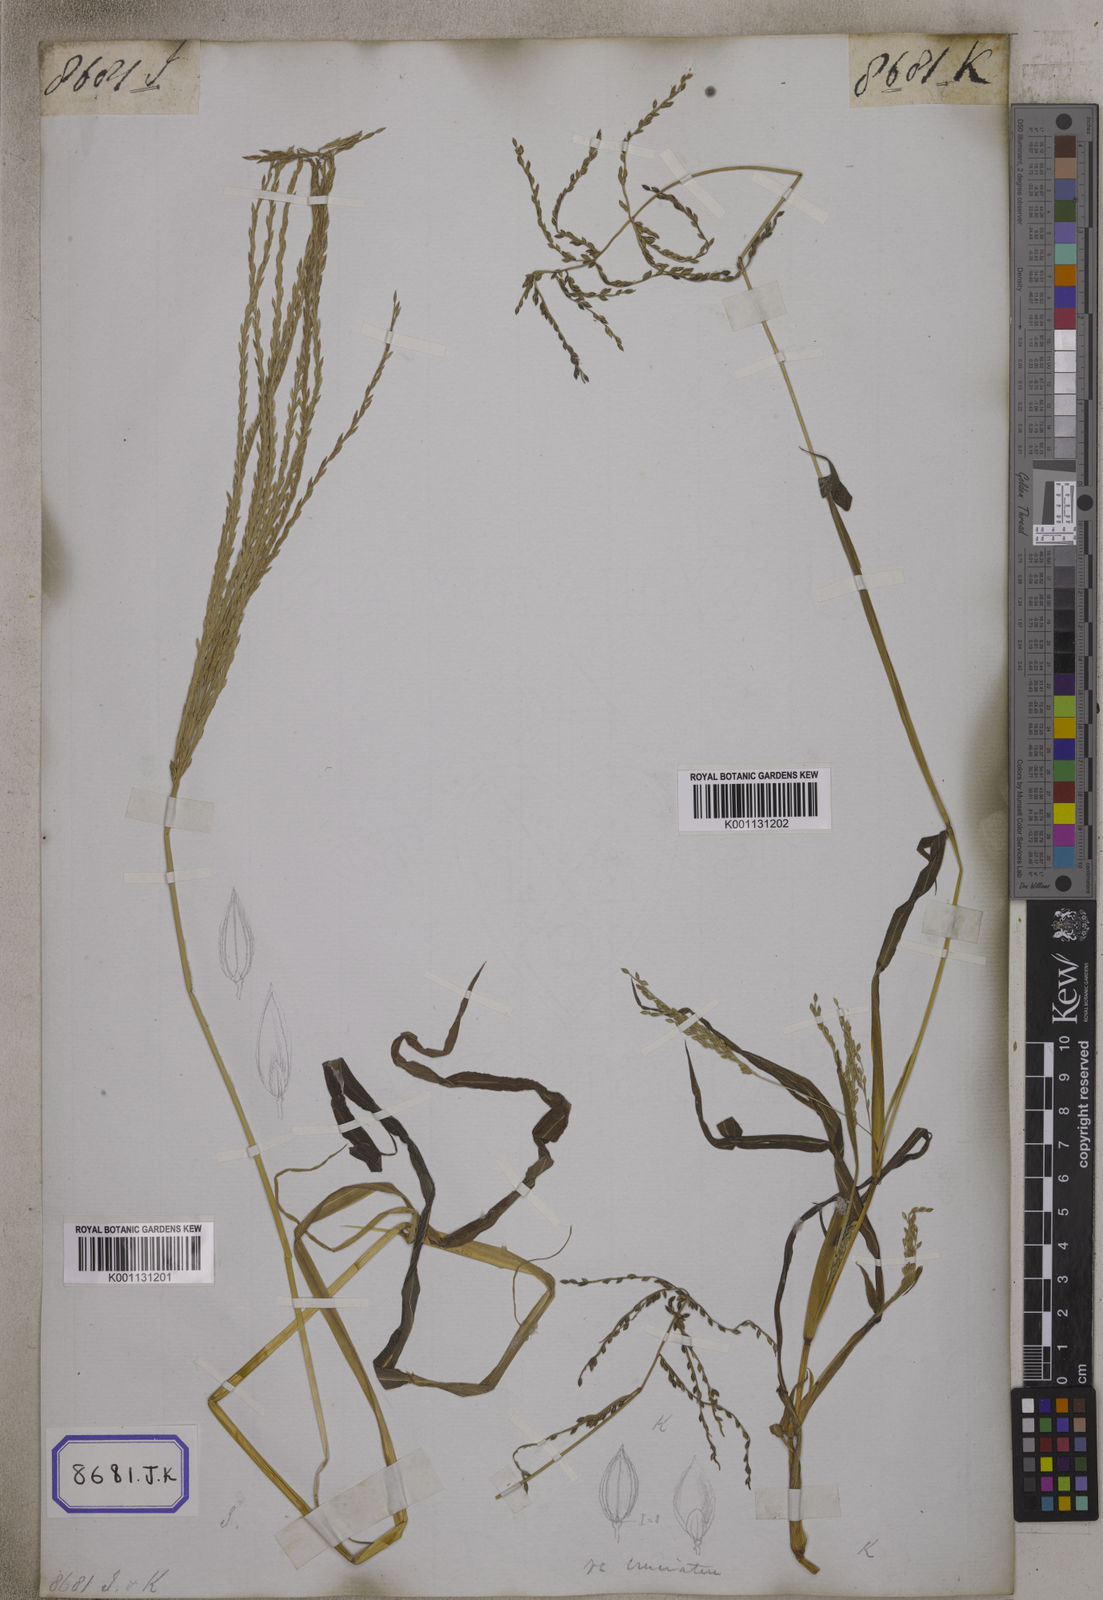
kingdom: Plantae
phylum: Tracheophyta
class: Liliopsida
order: Poales
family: Poaceae
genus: Digitaria
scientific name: Digitaria sanguinalis
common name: Hairy crabgrass
